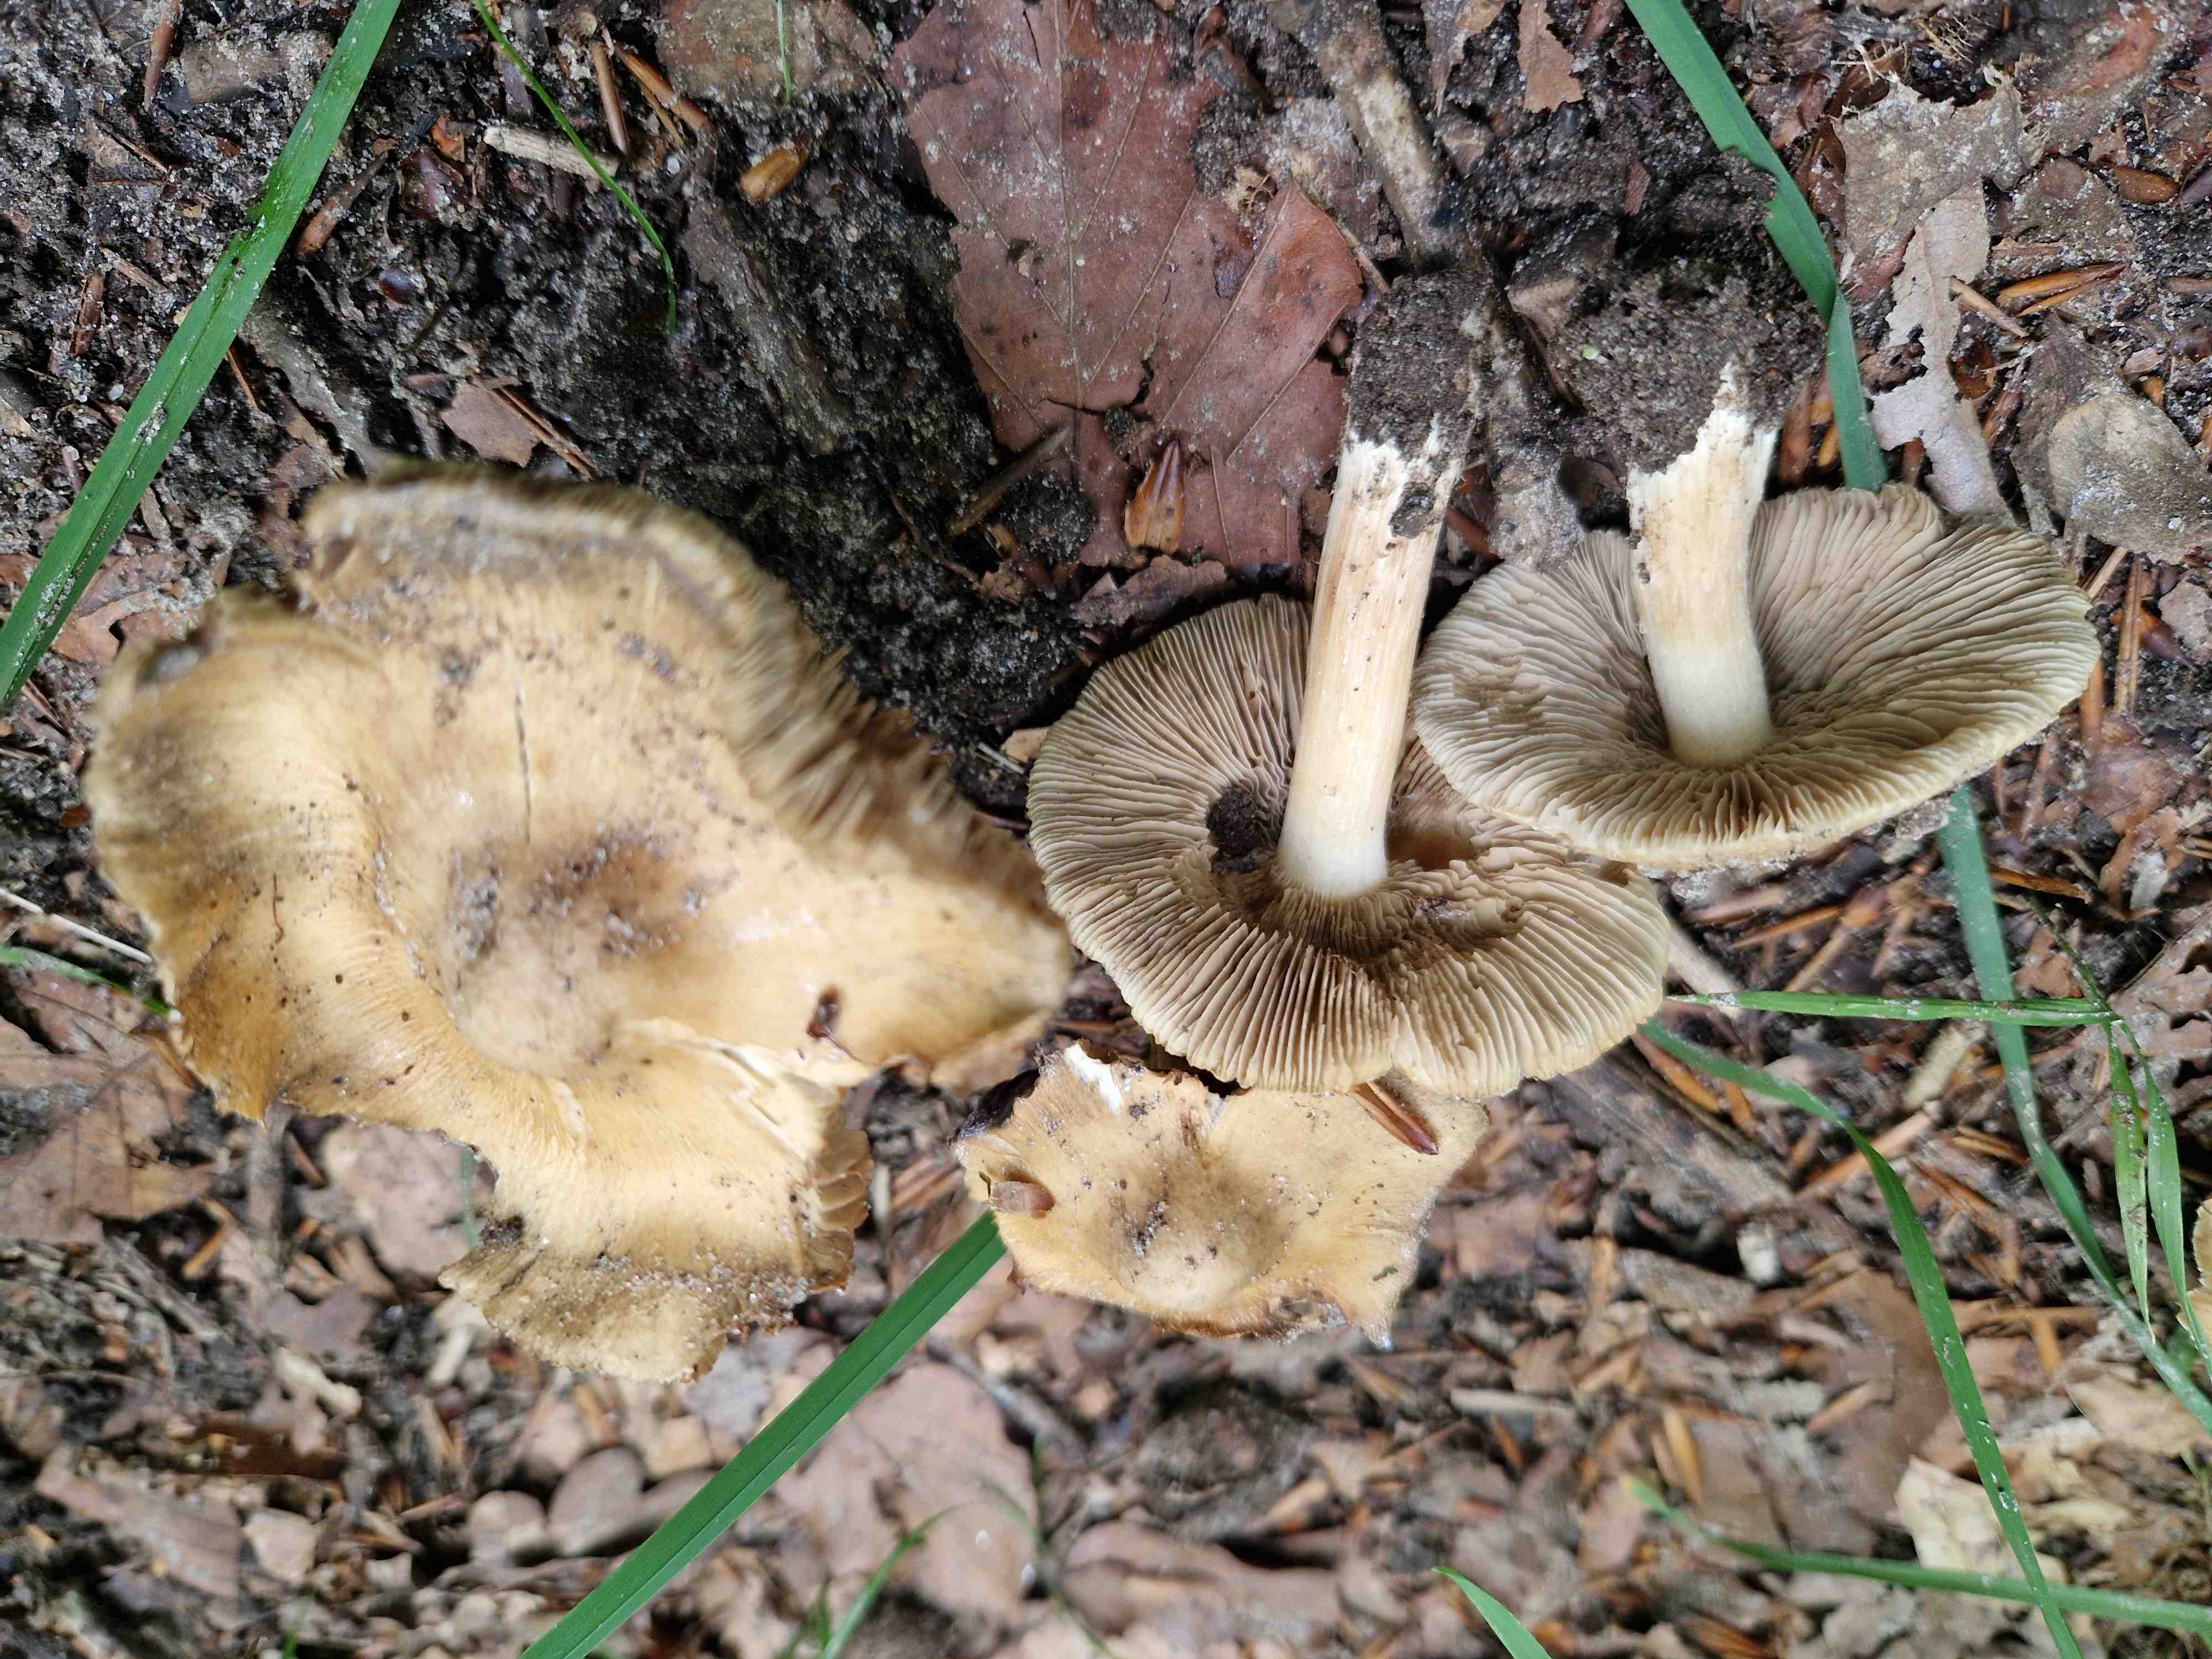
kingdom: Fungi
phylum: Basidiomycota
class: Agaricomycetes
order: Agaricales
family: Inocybaceae
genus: Inocybe
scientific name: Inocybe mixtilis
